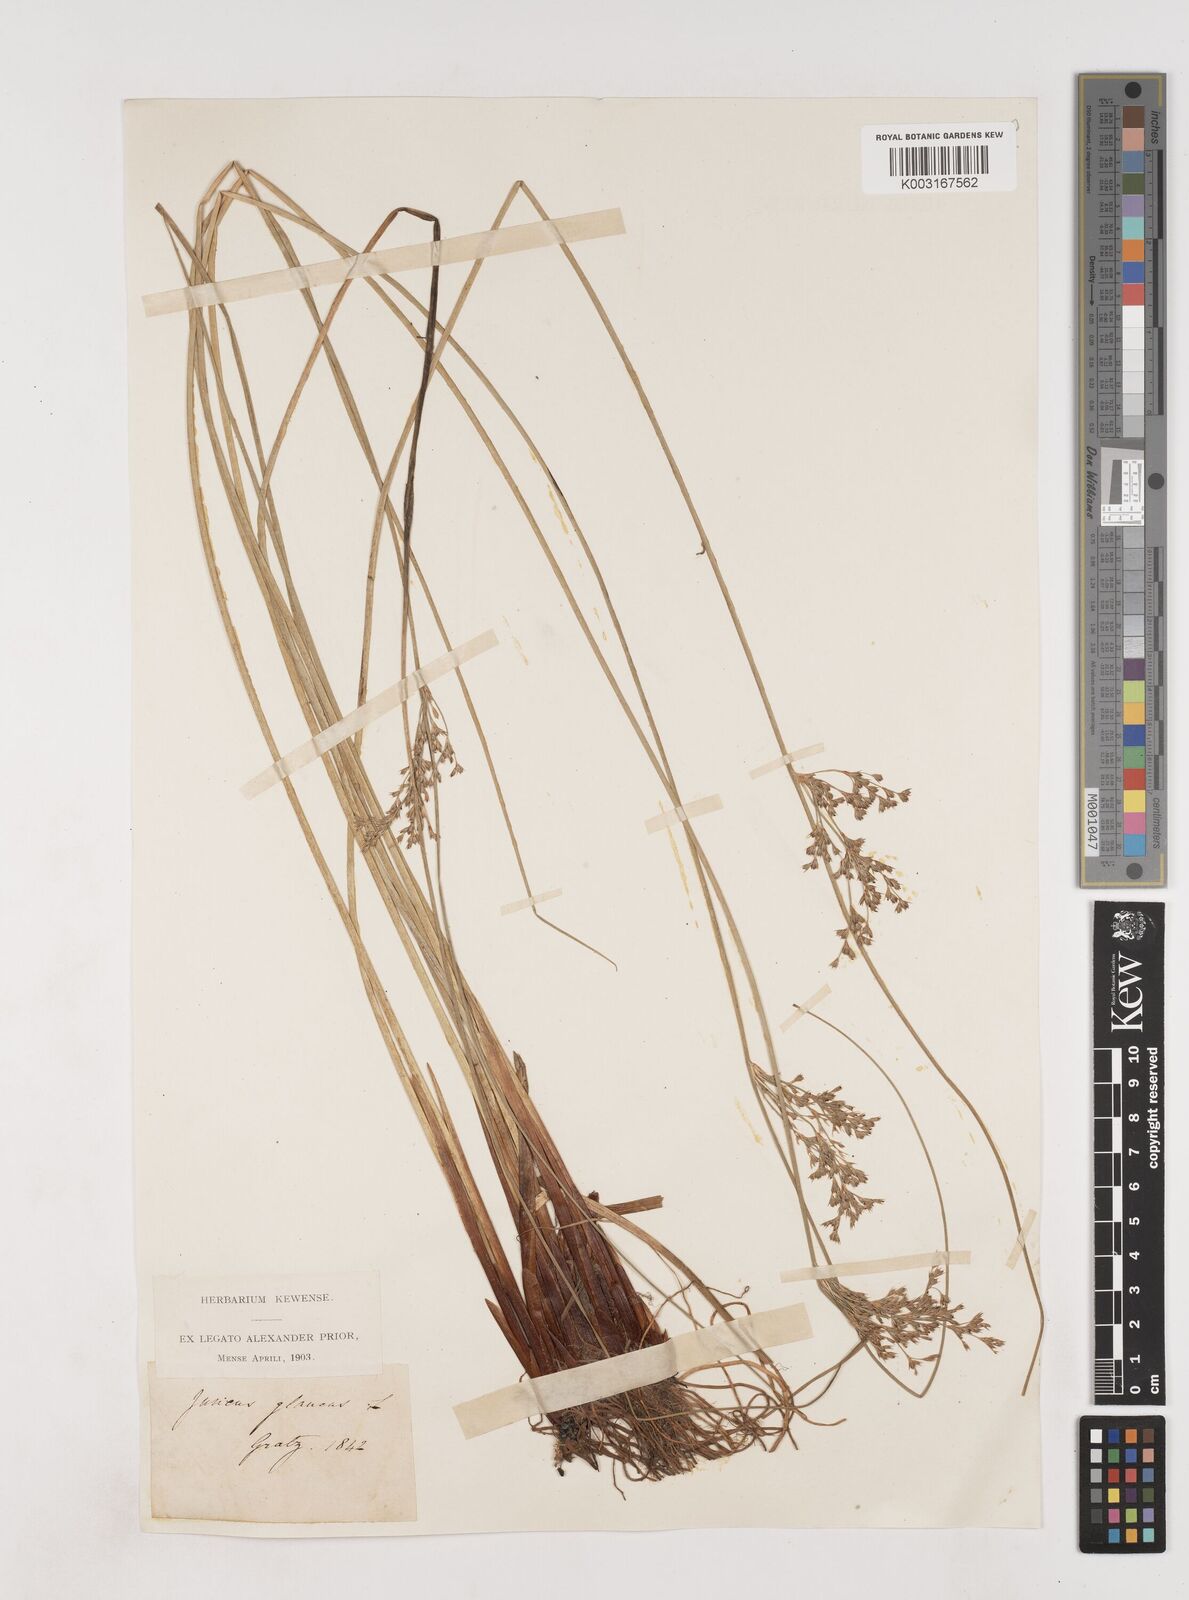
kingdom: Plantae
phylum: Tracheophyta
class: Liliopsida
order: Poales
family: Juncaceae
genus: Juncus
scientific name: Juncus inflexus
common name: Hard rush
